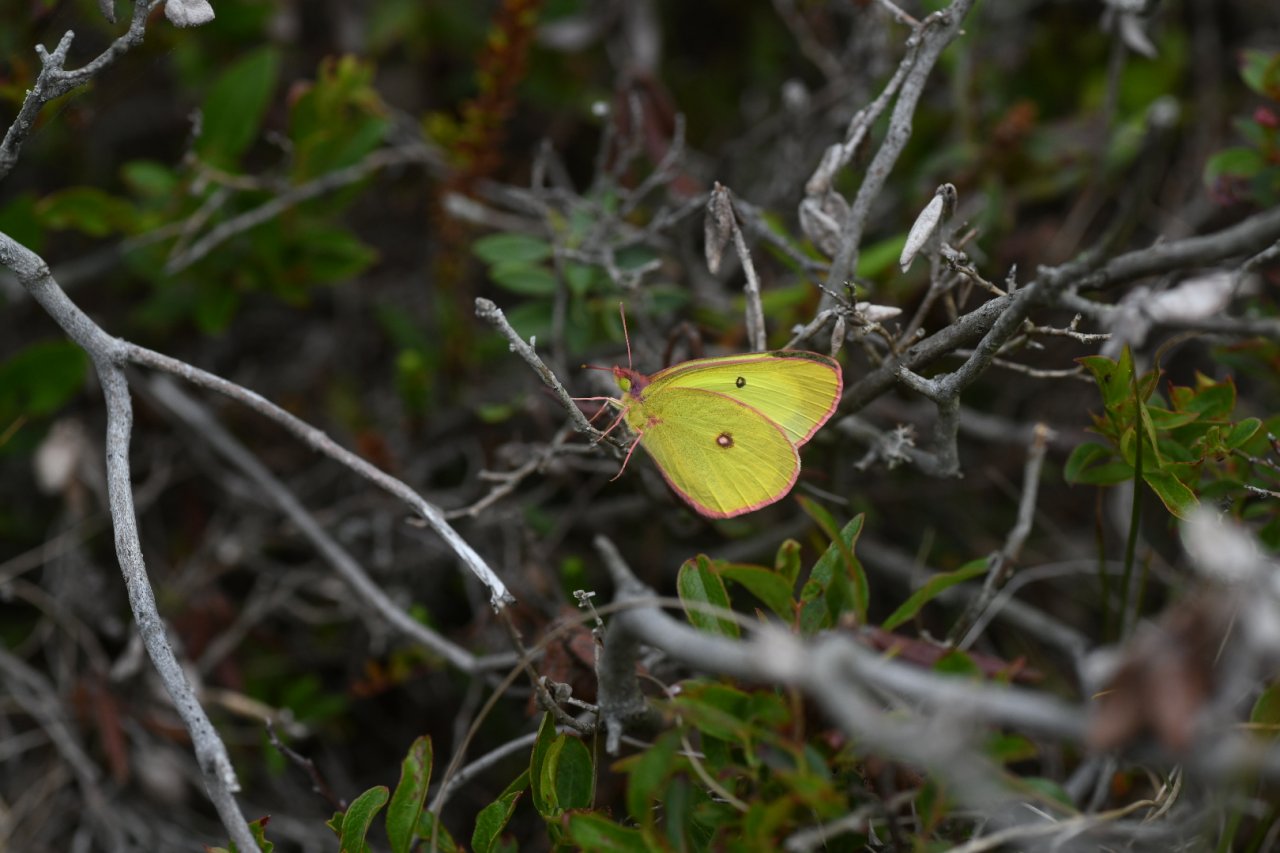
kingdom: Animalia
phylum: Arthropoda
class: Insecta
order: Lepidoptera
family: Pieridae
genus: Colias
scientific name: Colias interior
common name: Pink-edged Sulphur
